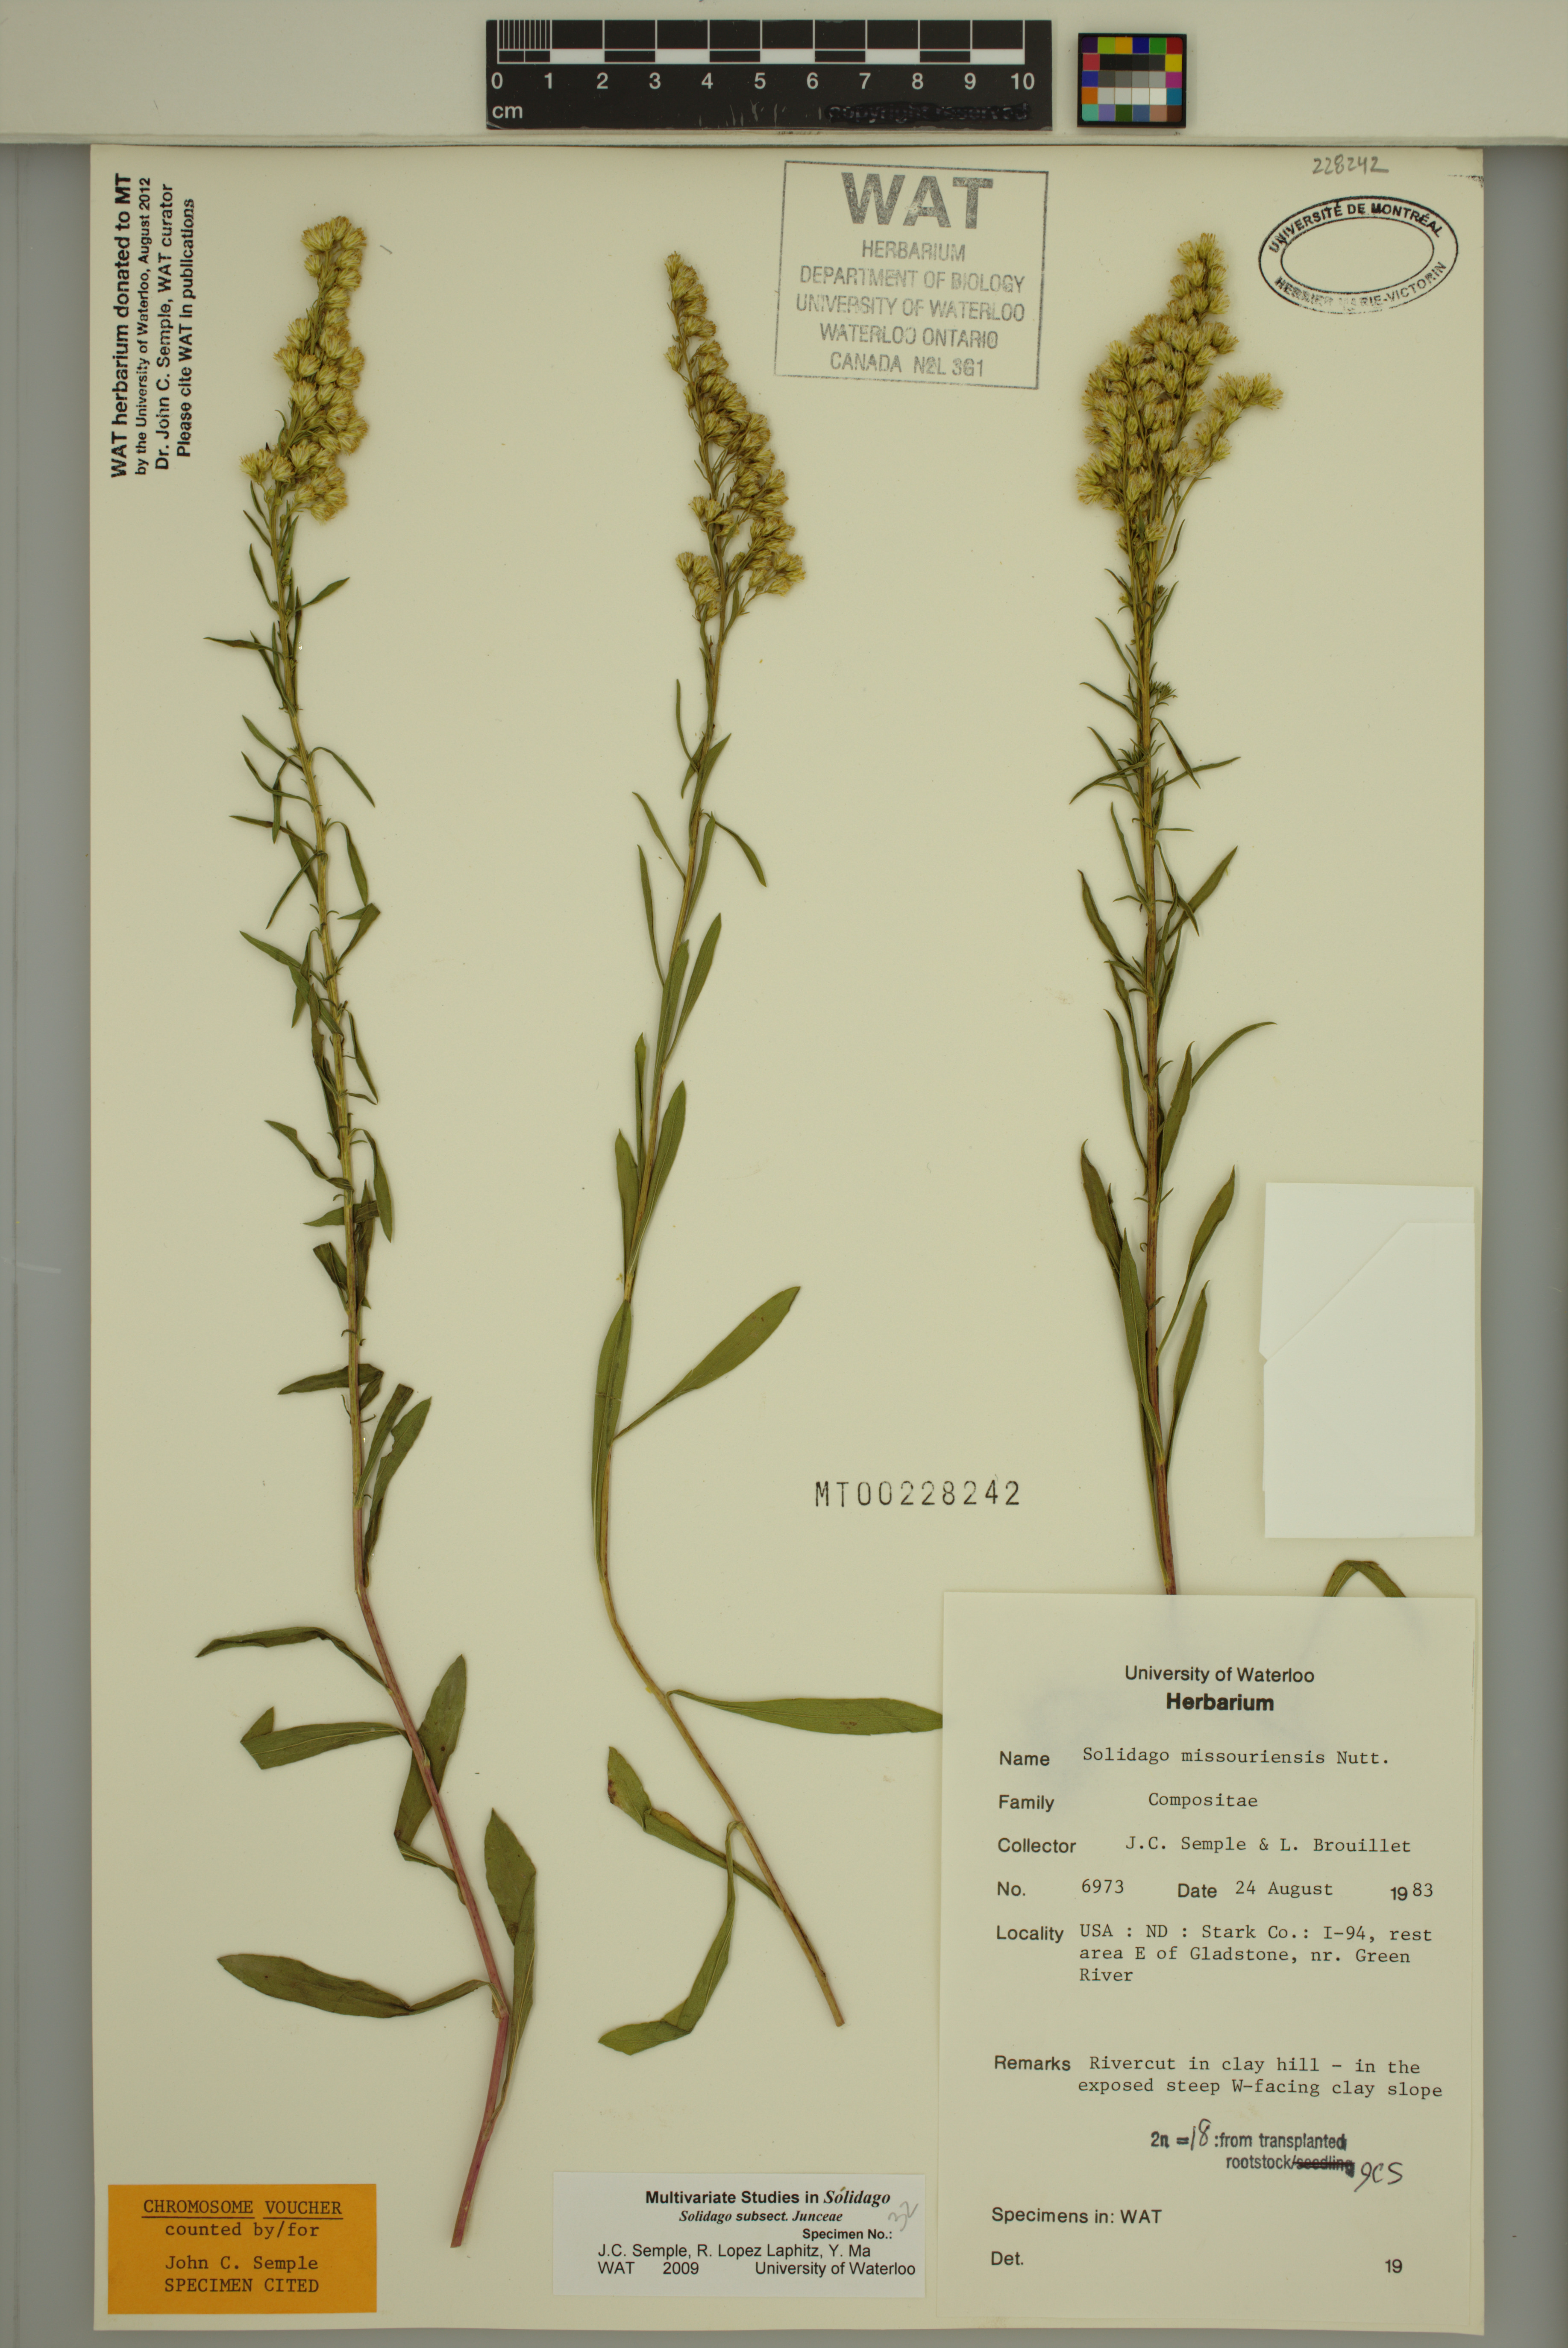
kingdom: Plantae
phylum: Tracheophyta
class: Magnoliopsida
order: Asterales
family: Asteraceae
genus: Solidago
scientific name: Solidago missouriensis
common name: Prairie goldenrod
